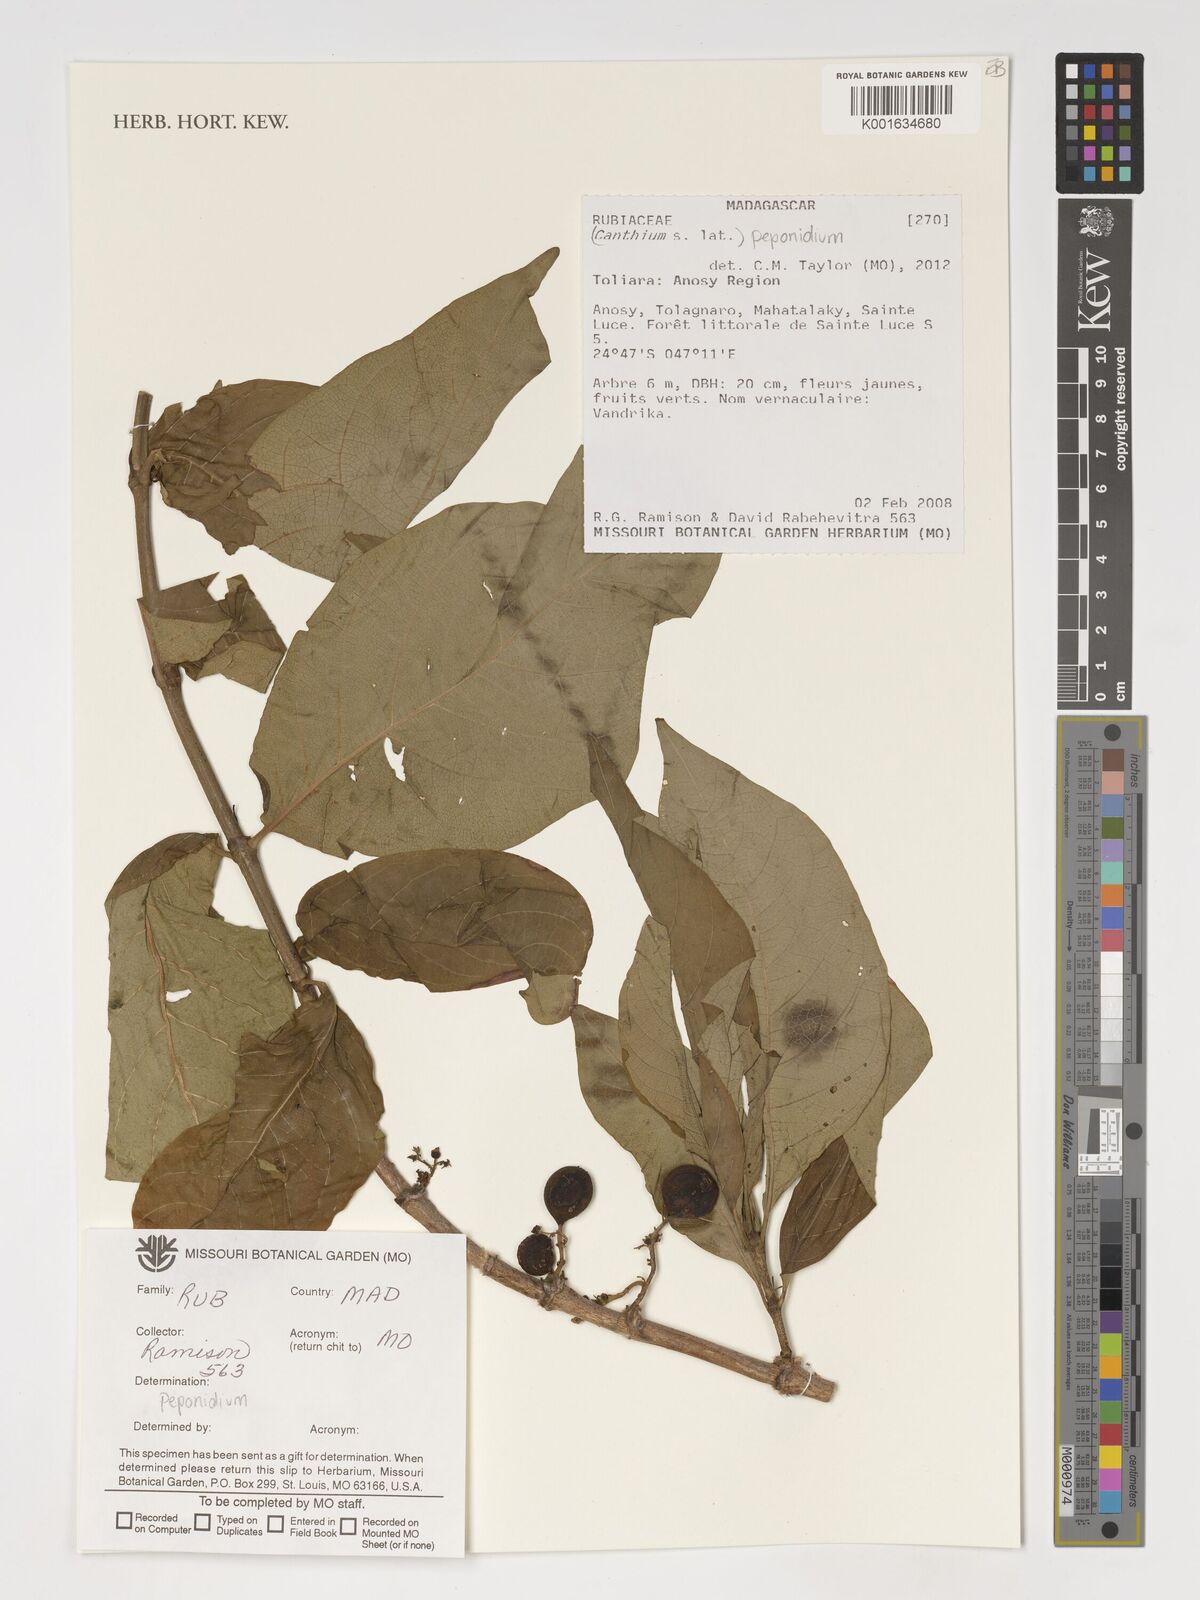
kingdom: Plantae
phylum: Tracheophyta
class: Magnoliopsida
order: Gentianales
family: Rubiaceae
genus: Peponidium
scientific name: Peponidium
